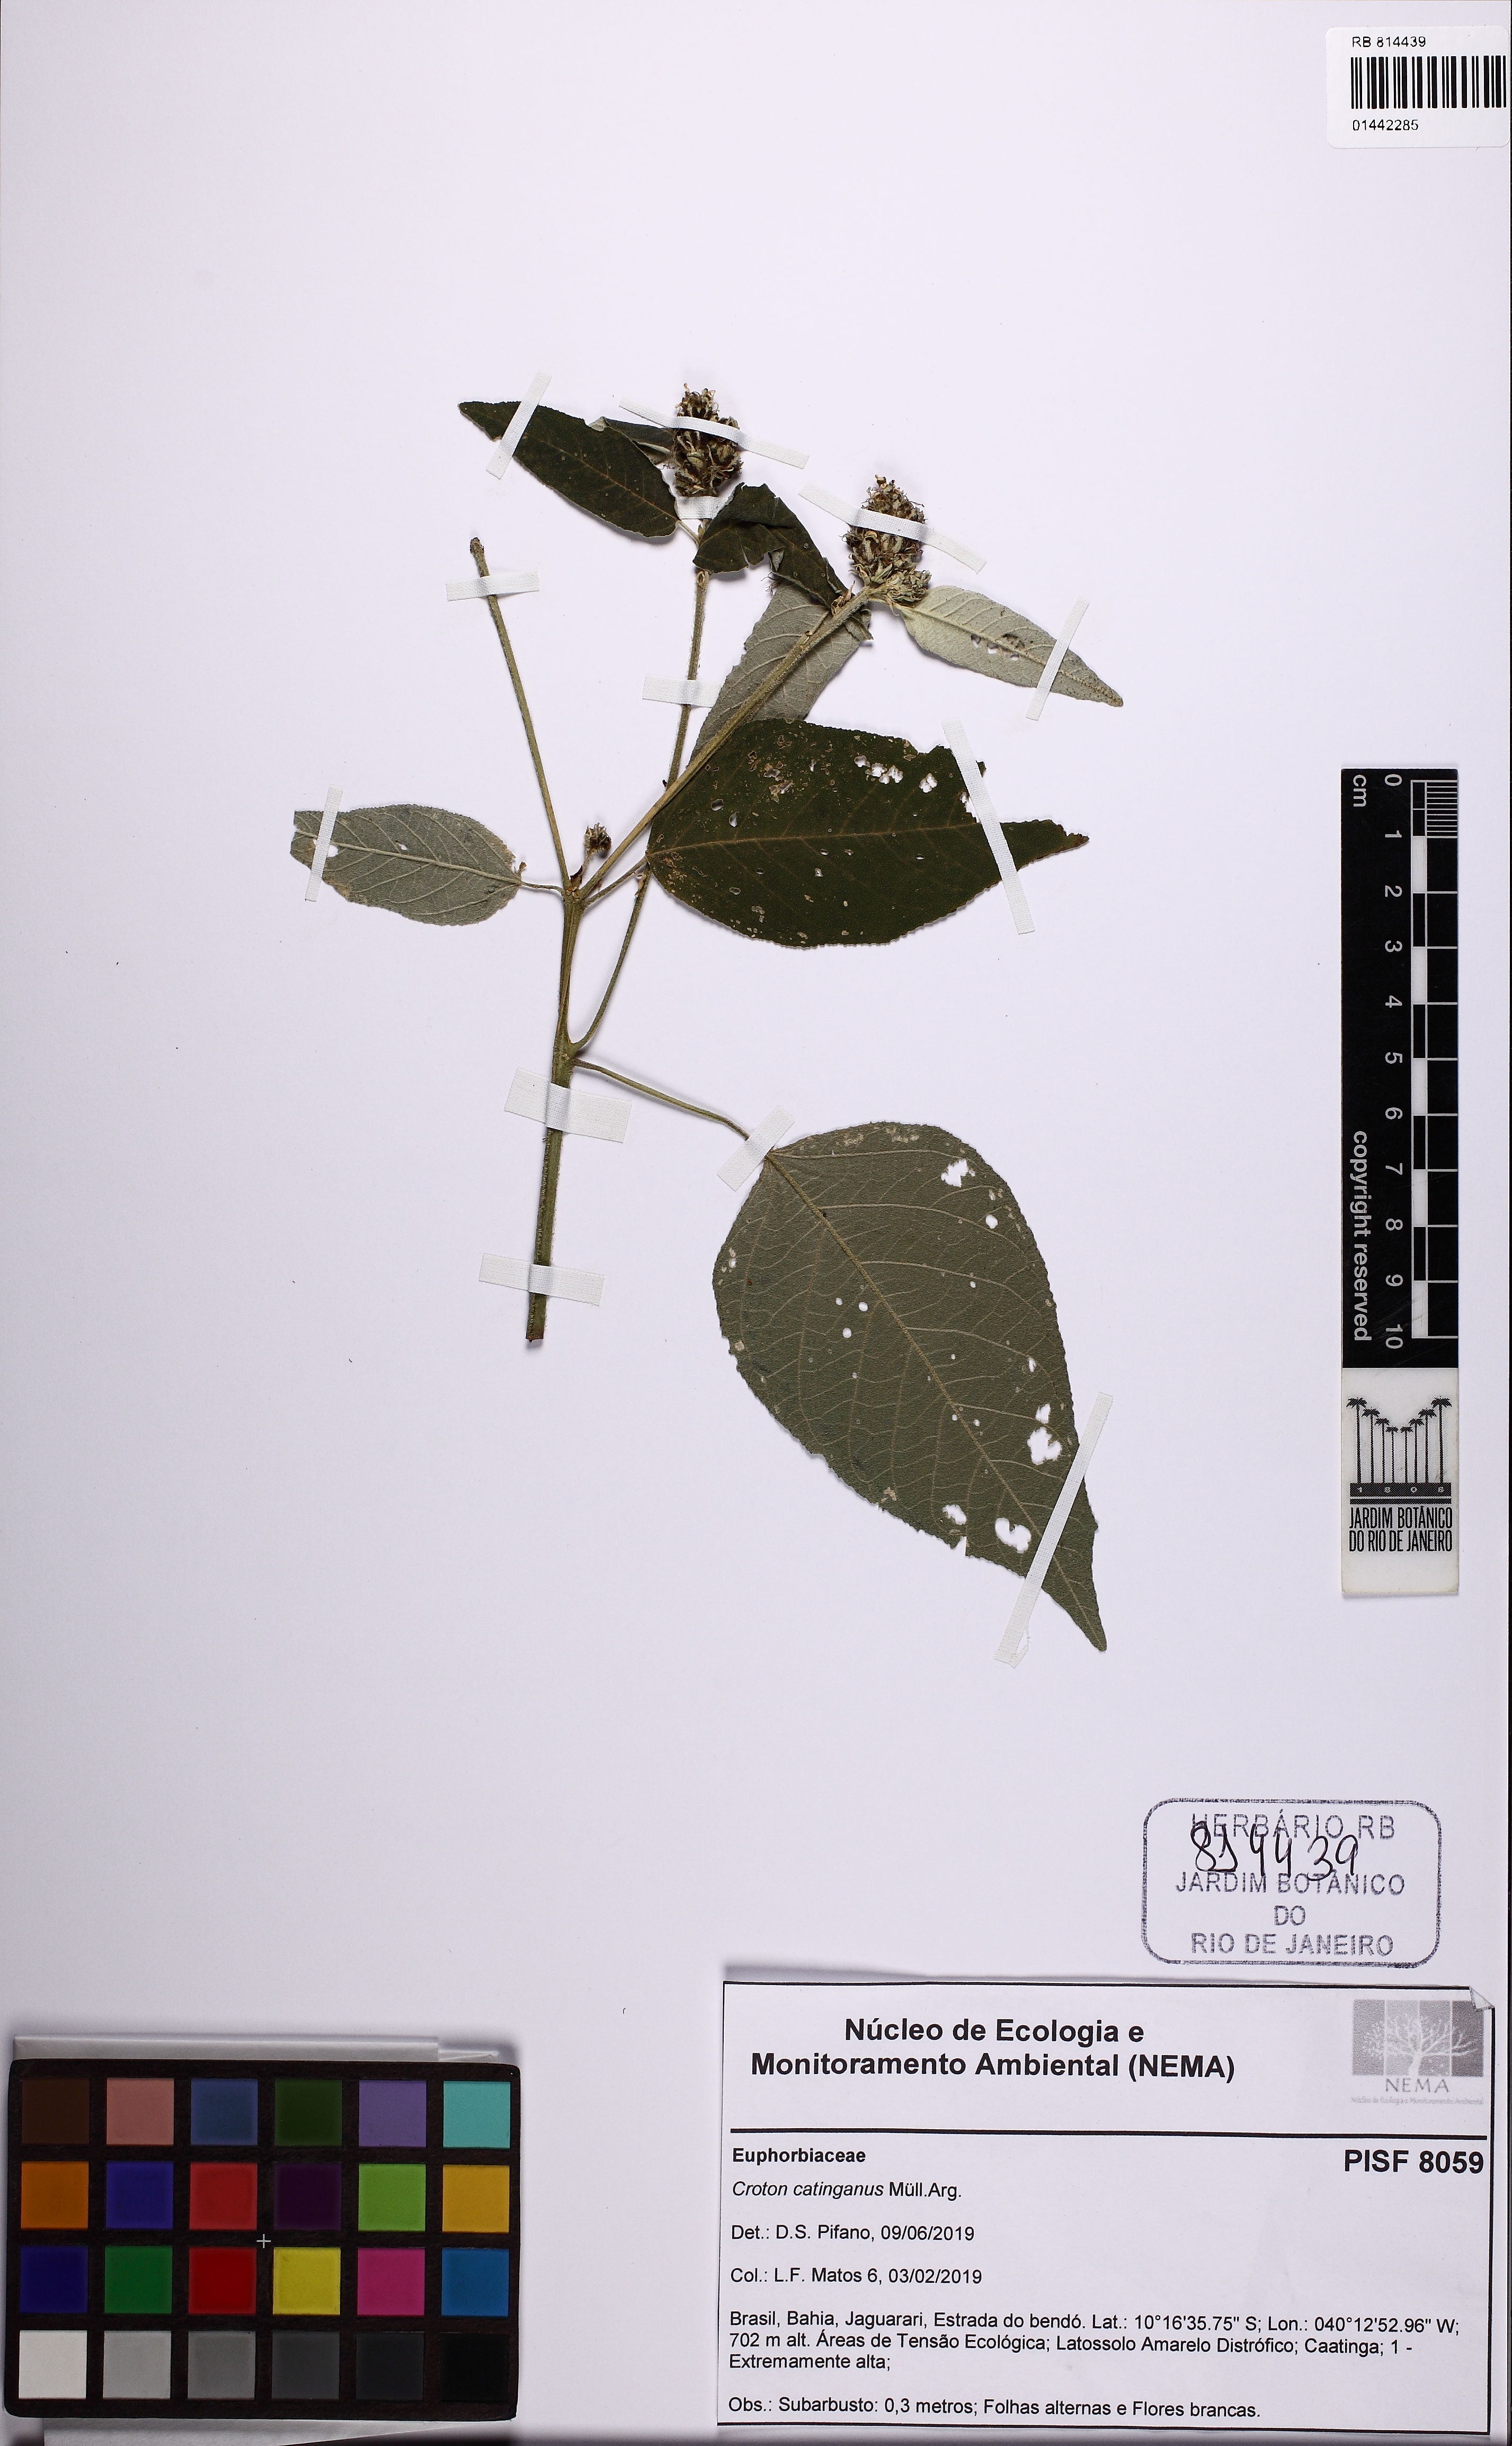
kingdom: Plantae
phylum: Tracheophyta
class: Magnoliopsida
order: Malpighiales
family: Euphorbiaceae
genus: Croton
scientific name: Croton triqueter
